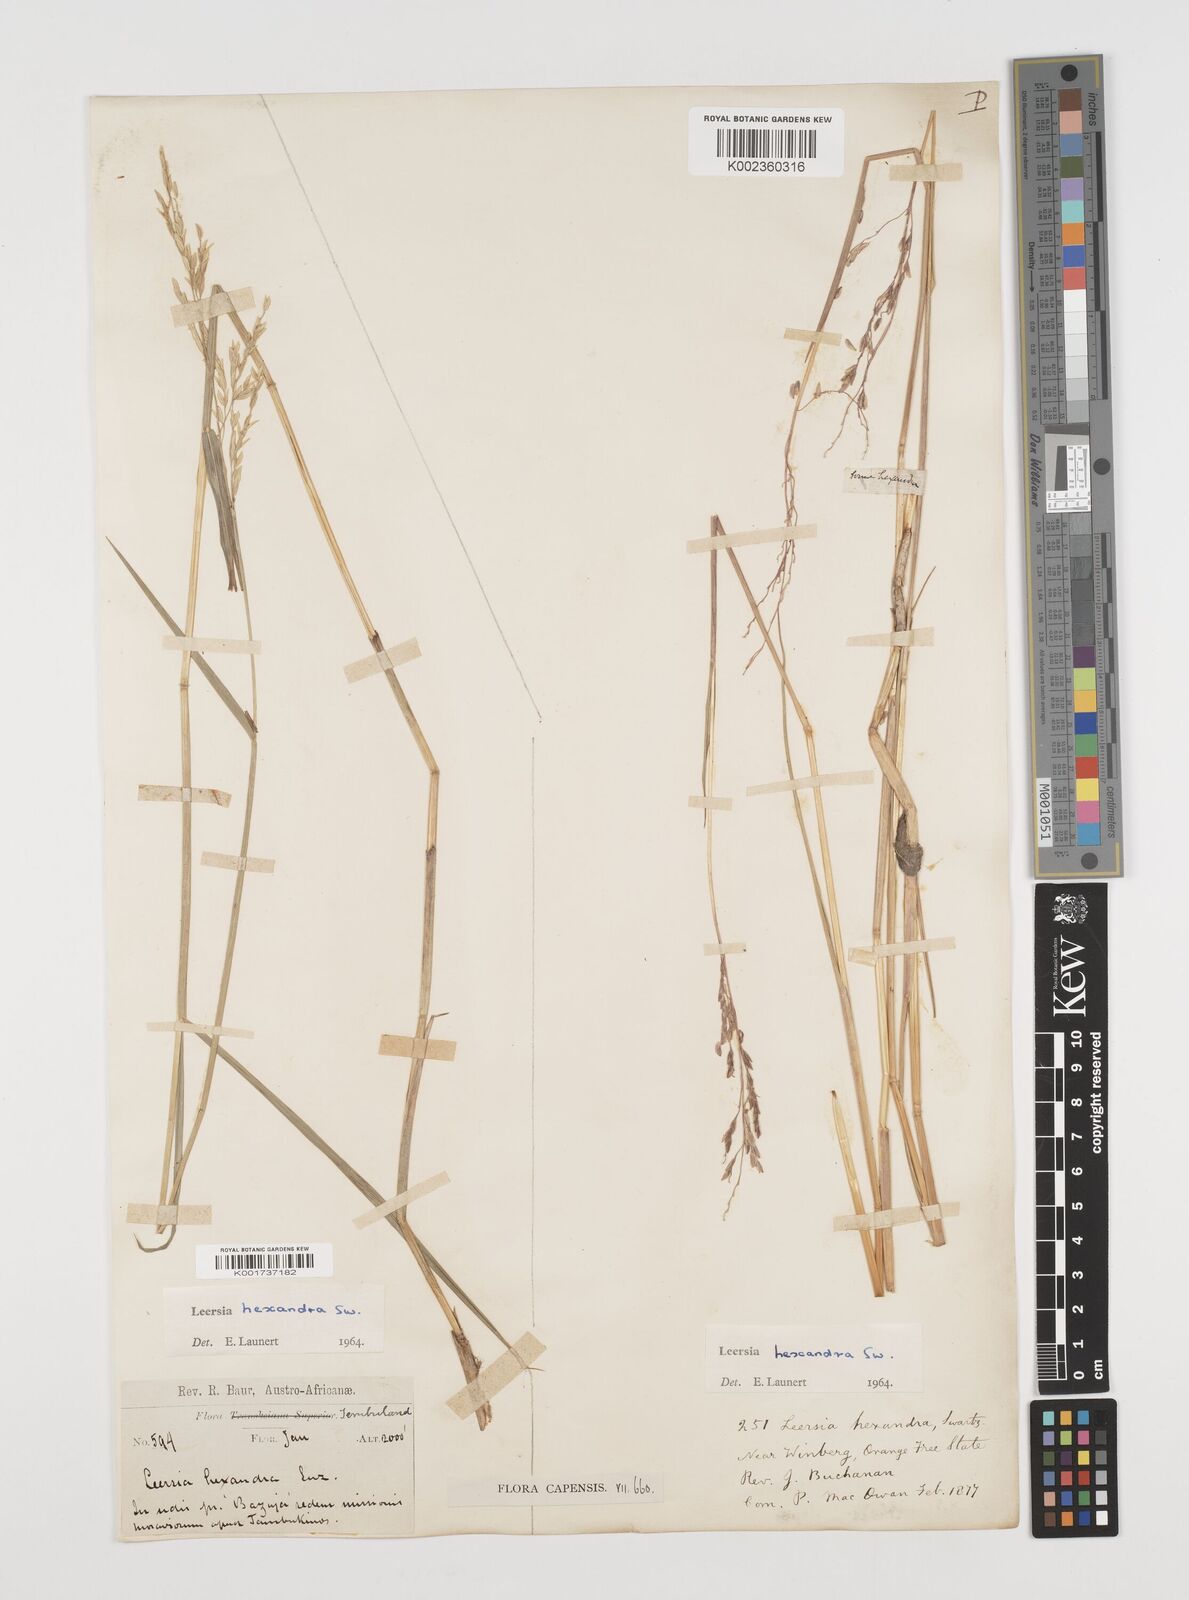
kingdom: Plantae
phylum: Tracheophyta
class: Liliopsida
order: Poales
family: Poaceae
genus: Leersia
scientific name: Leersia hexandra
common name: Southern cut grass
